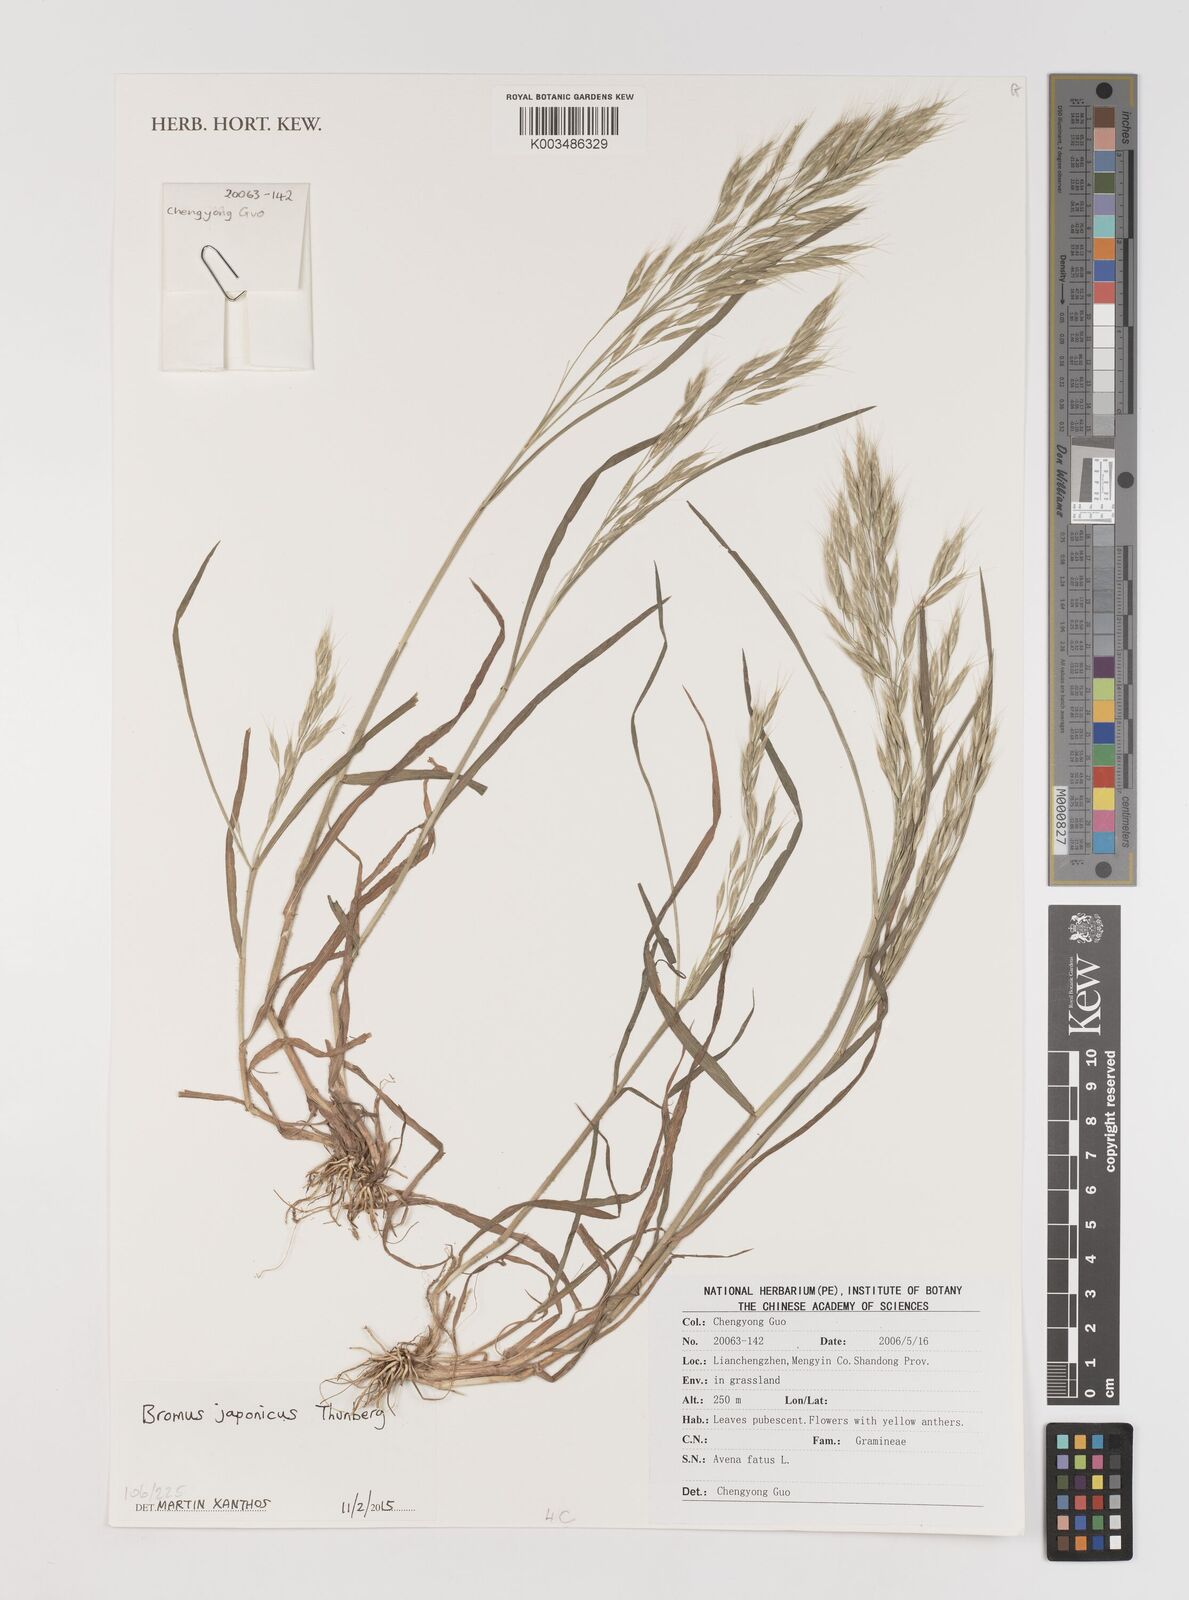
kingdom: Plantae
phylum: Tracheophyta
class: Liliopsida
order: Poales
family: Poaceae
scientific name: Poaceae
